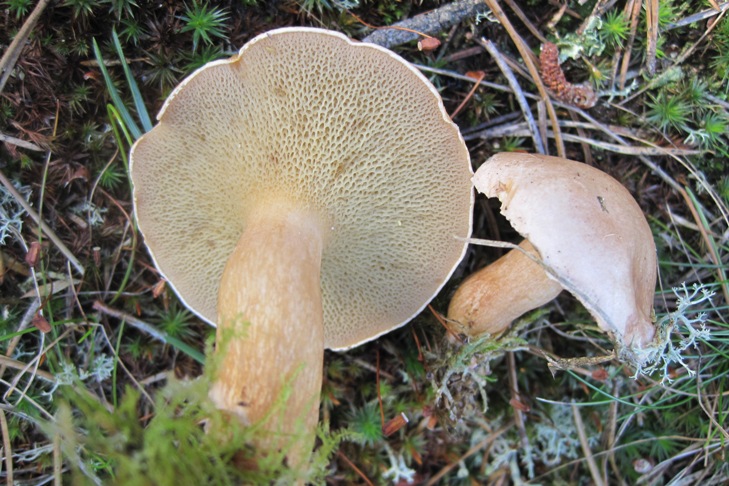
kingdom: Fungi
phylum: Basidiomycota
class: Agaricomycetes
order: Boletales
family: Suillaceae
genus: Suillus
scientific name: Suillus bovinus
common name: grovporet slimrørhat
